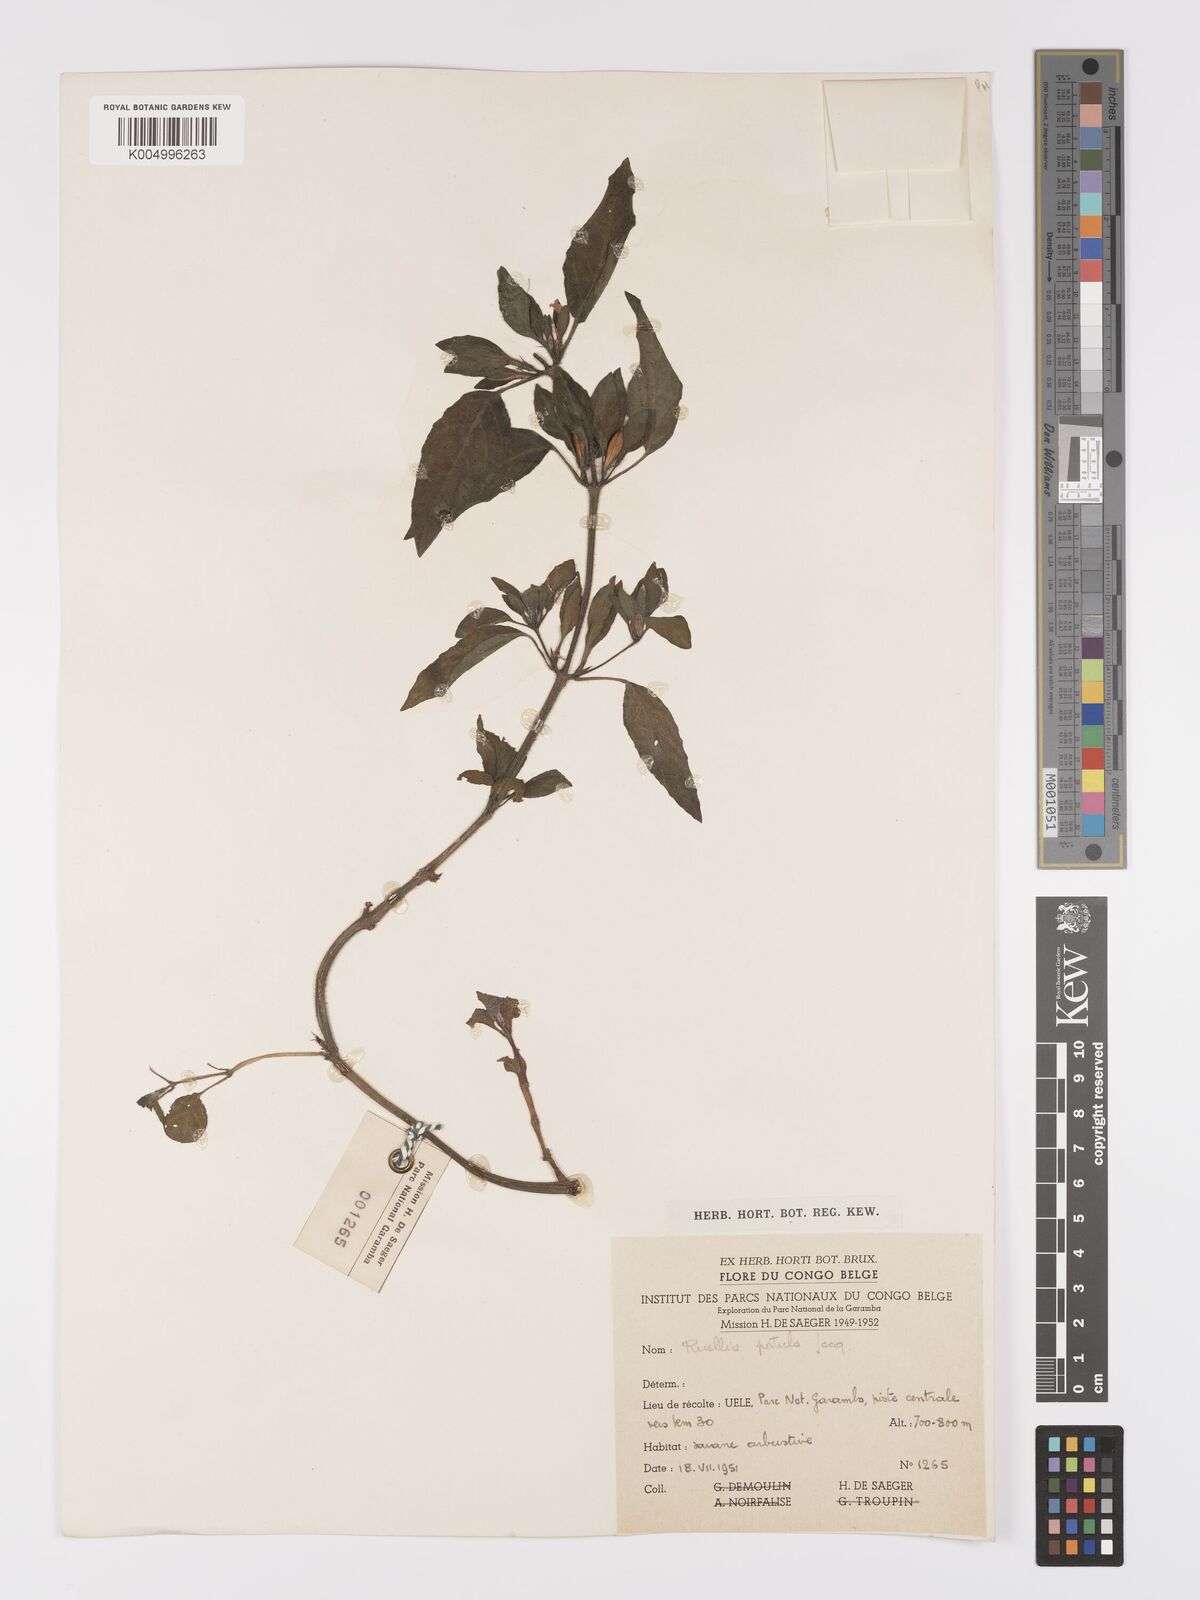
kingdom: Plantae
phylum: Tracheophyta
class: Magnoliopsida
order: Lamiales
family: Acanthaceae
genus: Ruellia
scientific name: Ruellia praetermissa
